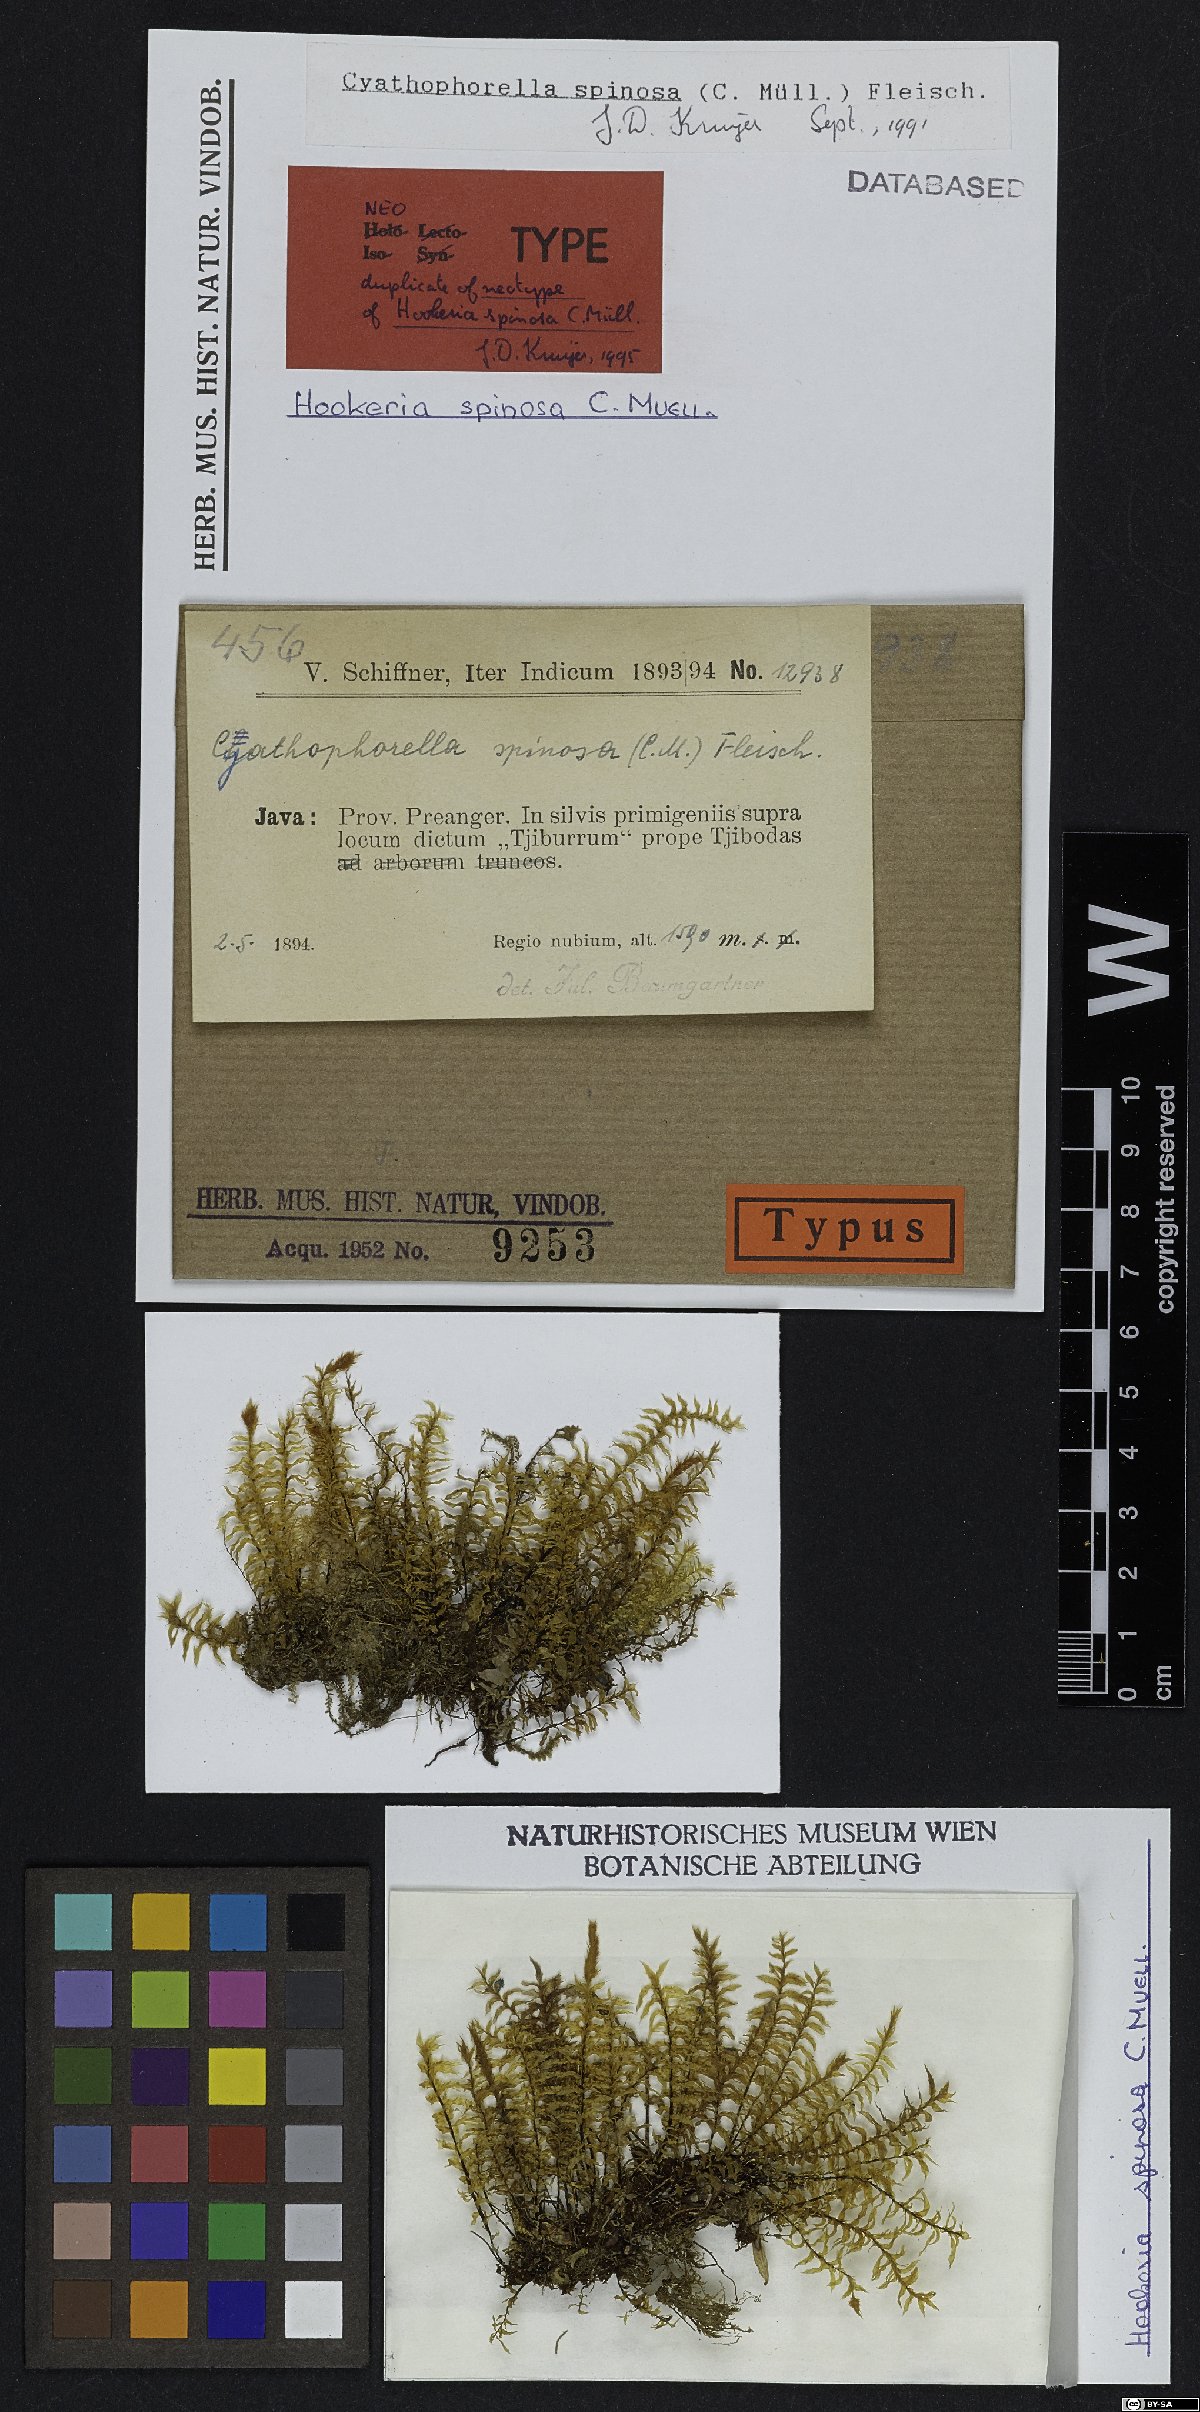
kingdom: Plantae
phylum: Bryophyta
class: Bryopsida
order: Hypopterygiales
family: Hypopterygiaceae
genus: Cyathophorum
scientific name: Cyathophorum spinosum
